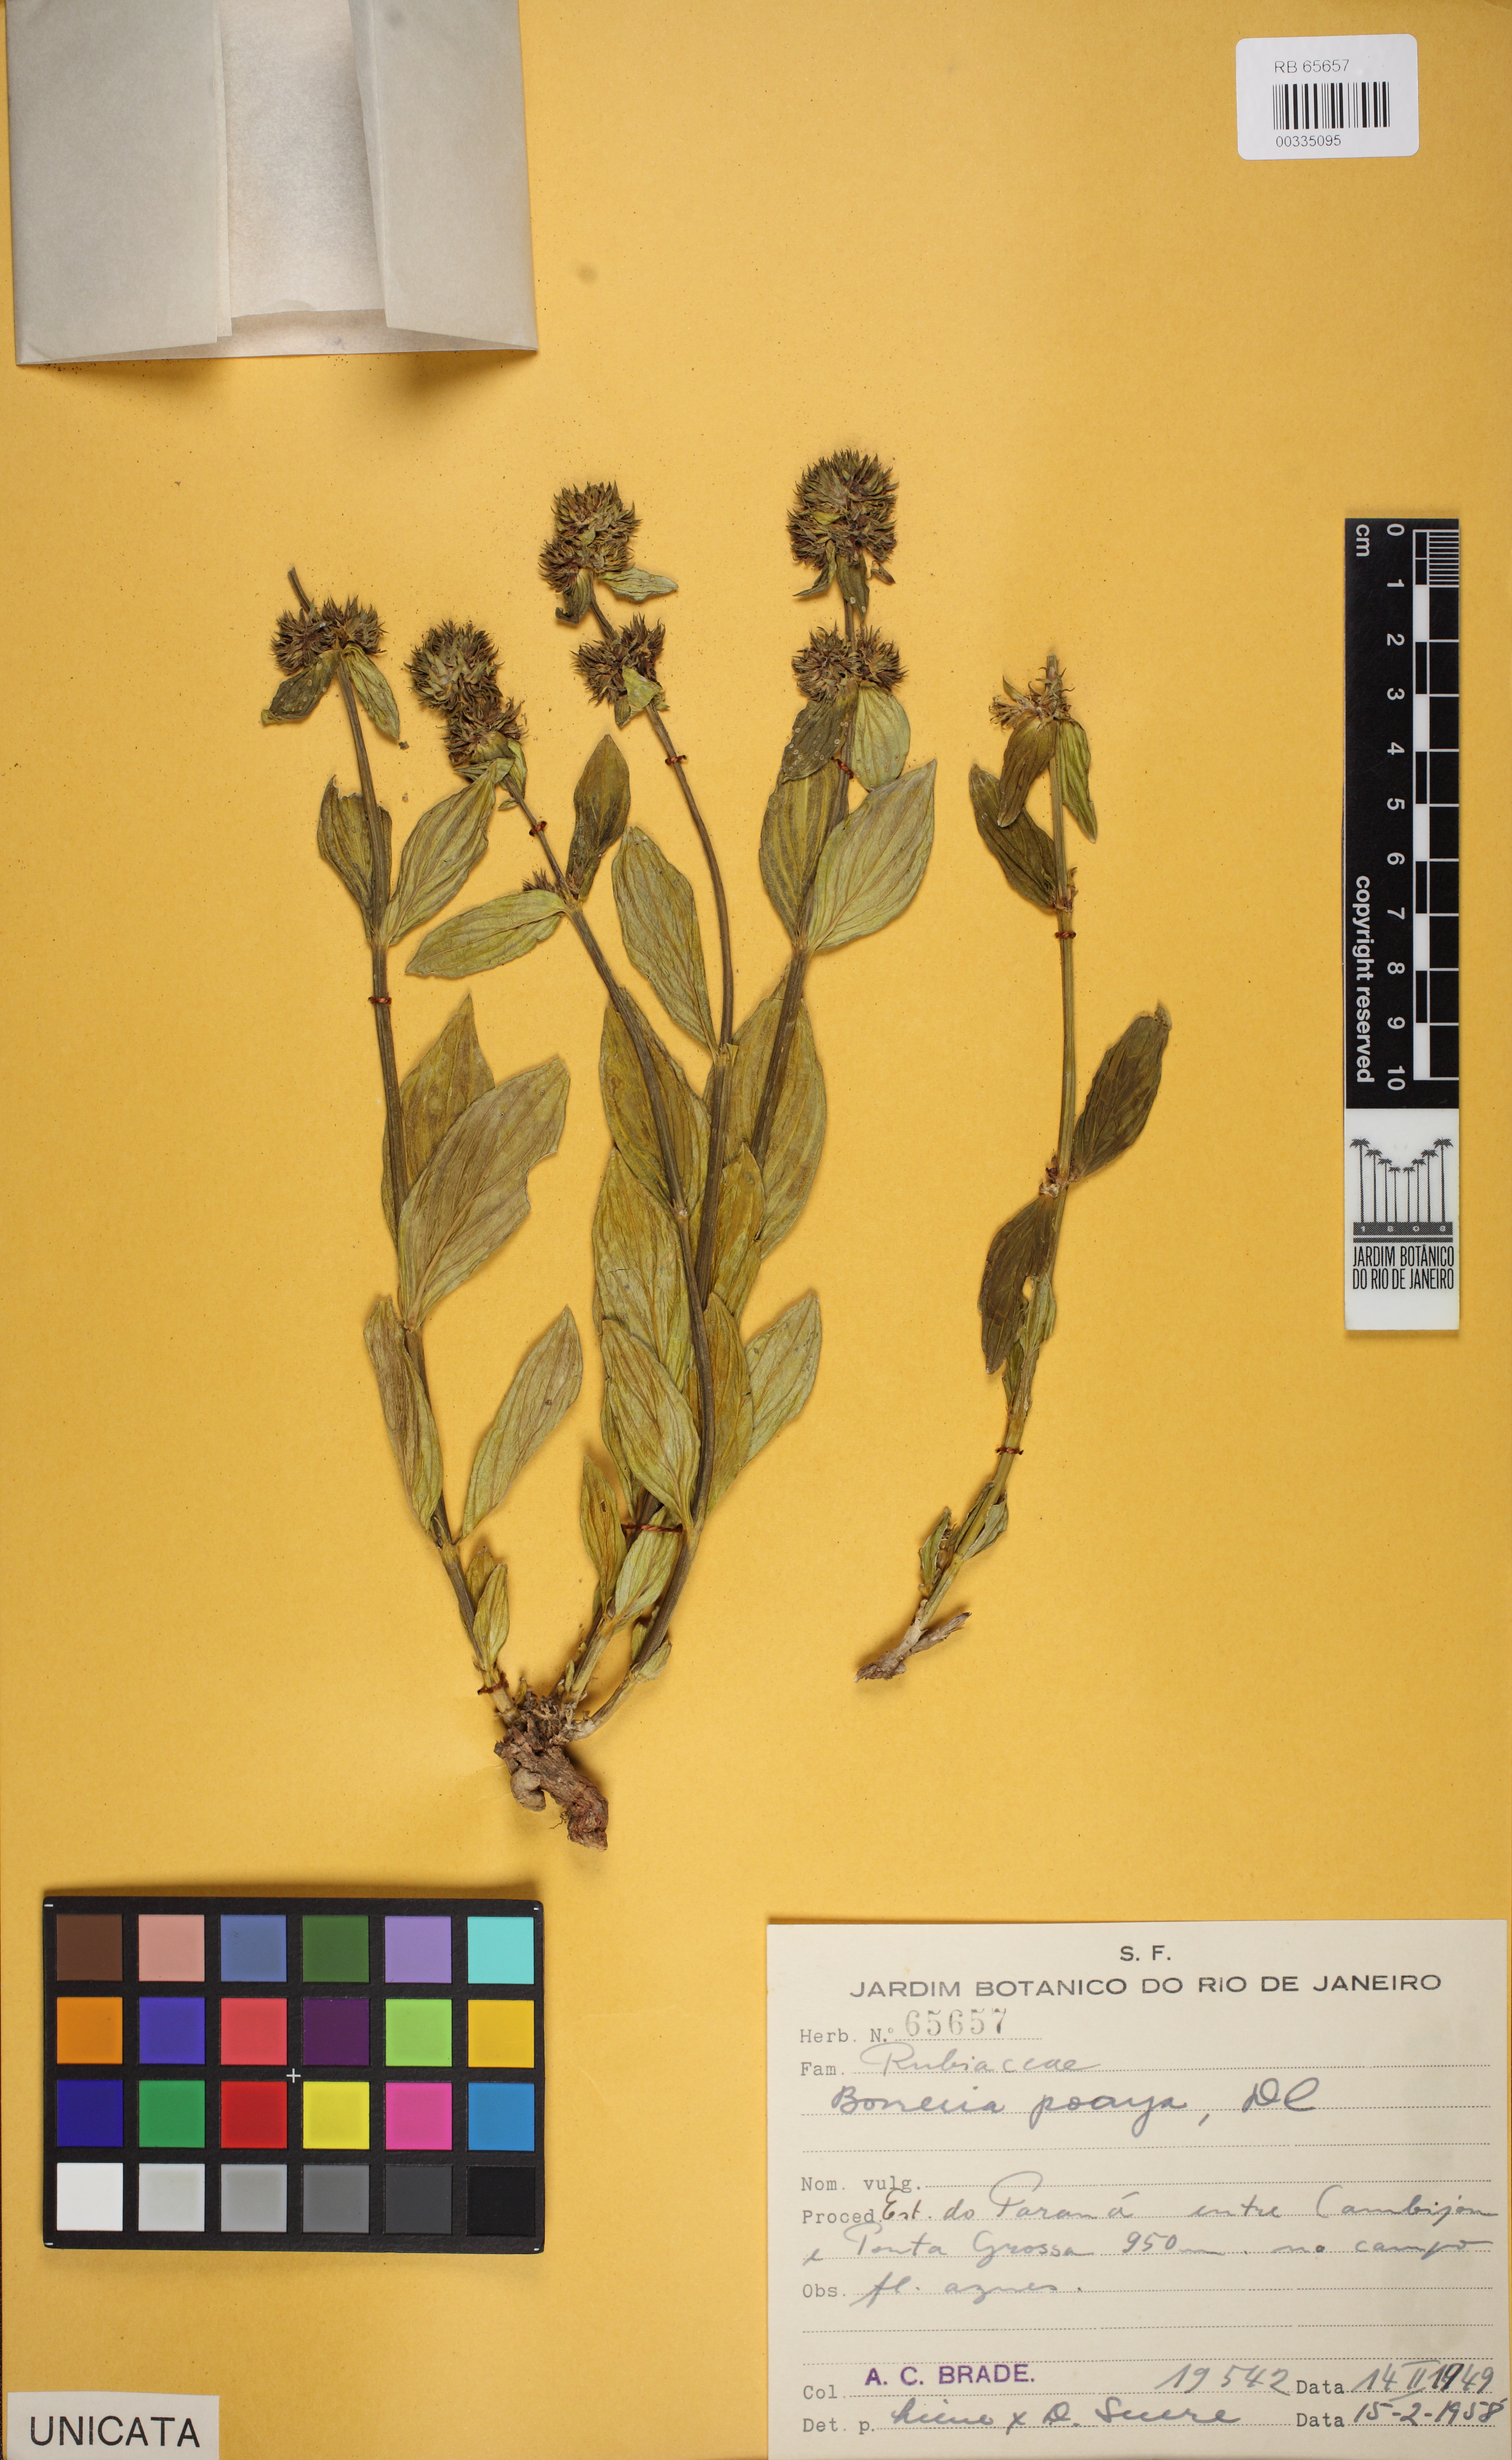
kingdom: Plantae
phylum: Tracheophyta
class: Magnoliopsida
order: Gentianales
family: Rubiaceae
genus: Spermacoce
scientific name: Spermacoce poaya
